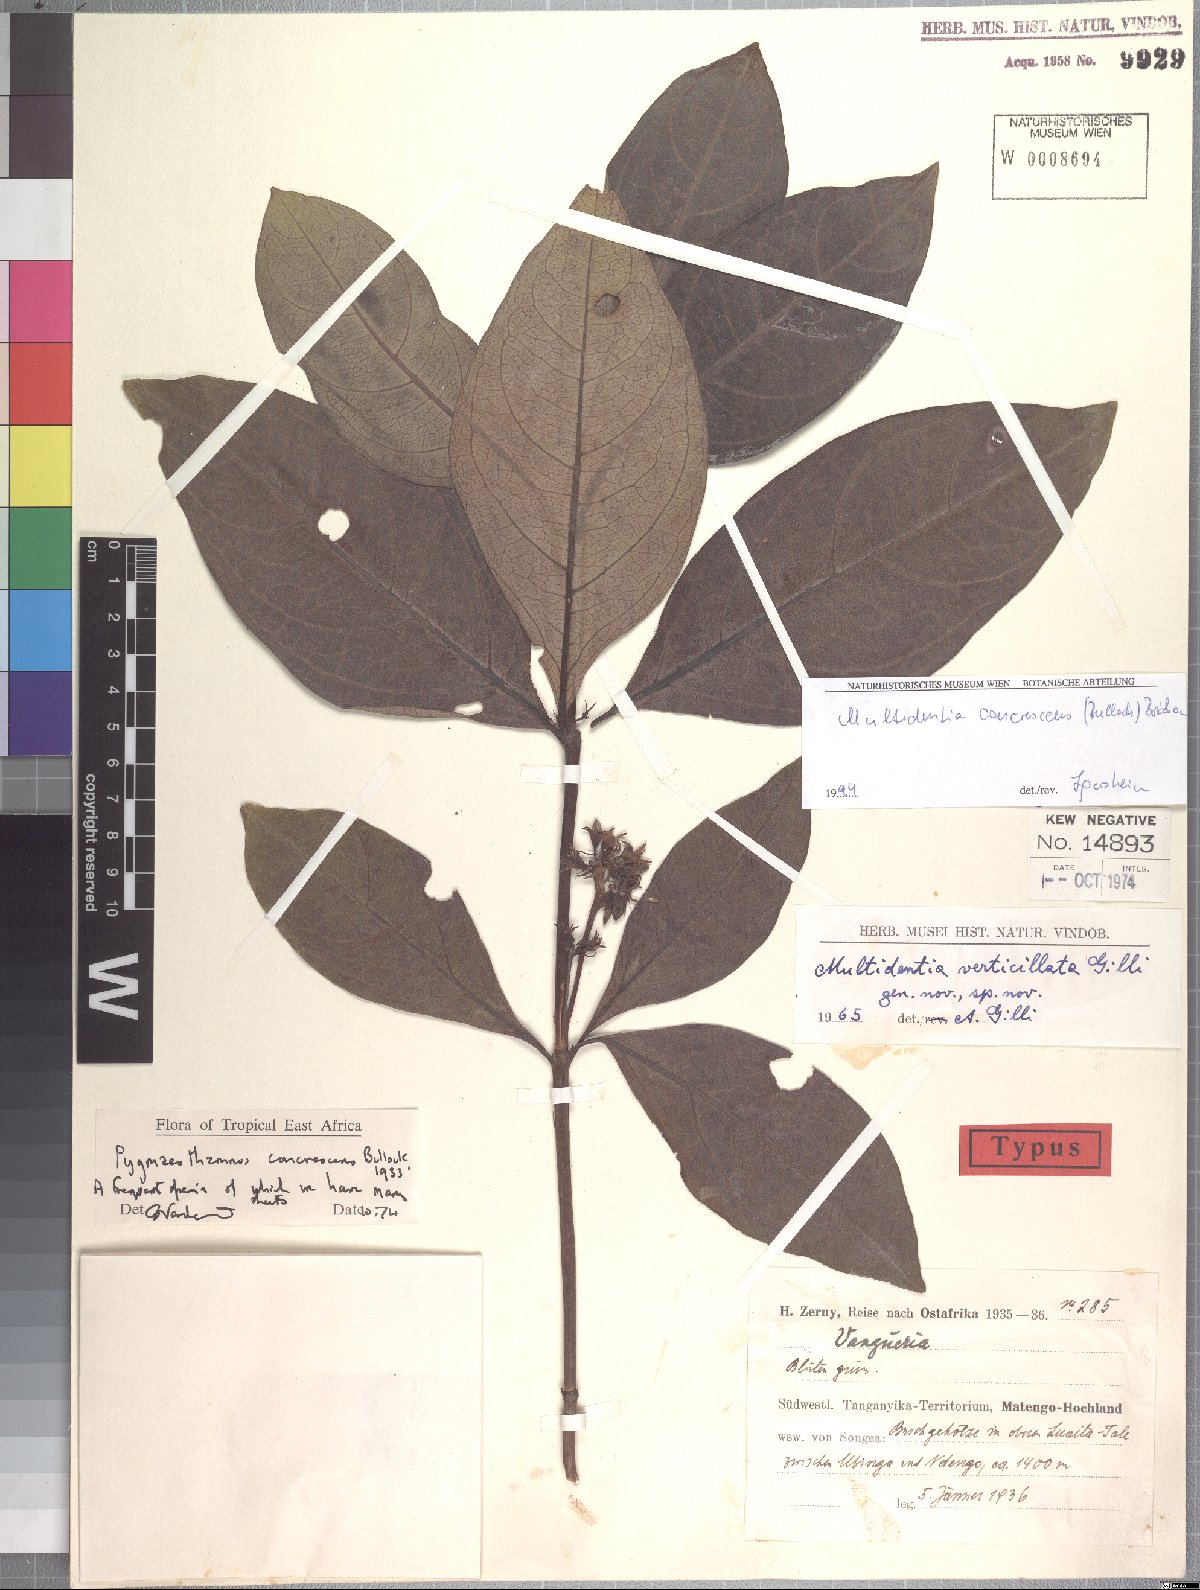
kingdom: Plantae
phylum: Tracheophyta
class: Magnoliopsida
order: Gentianales
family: Rubiaceae
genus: Multidentia
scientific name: Multidentia concrescens
